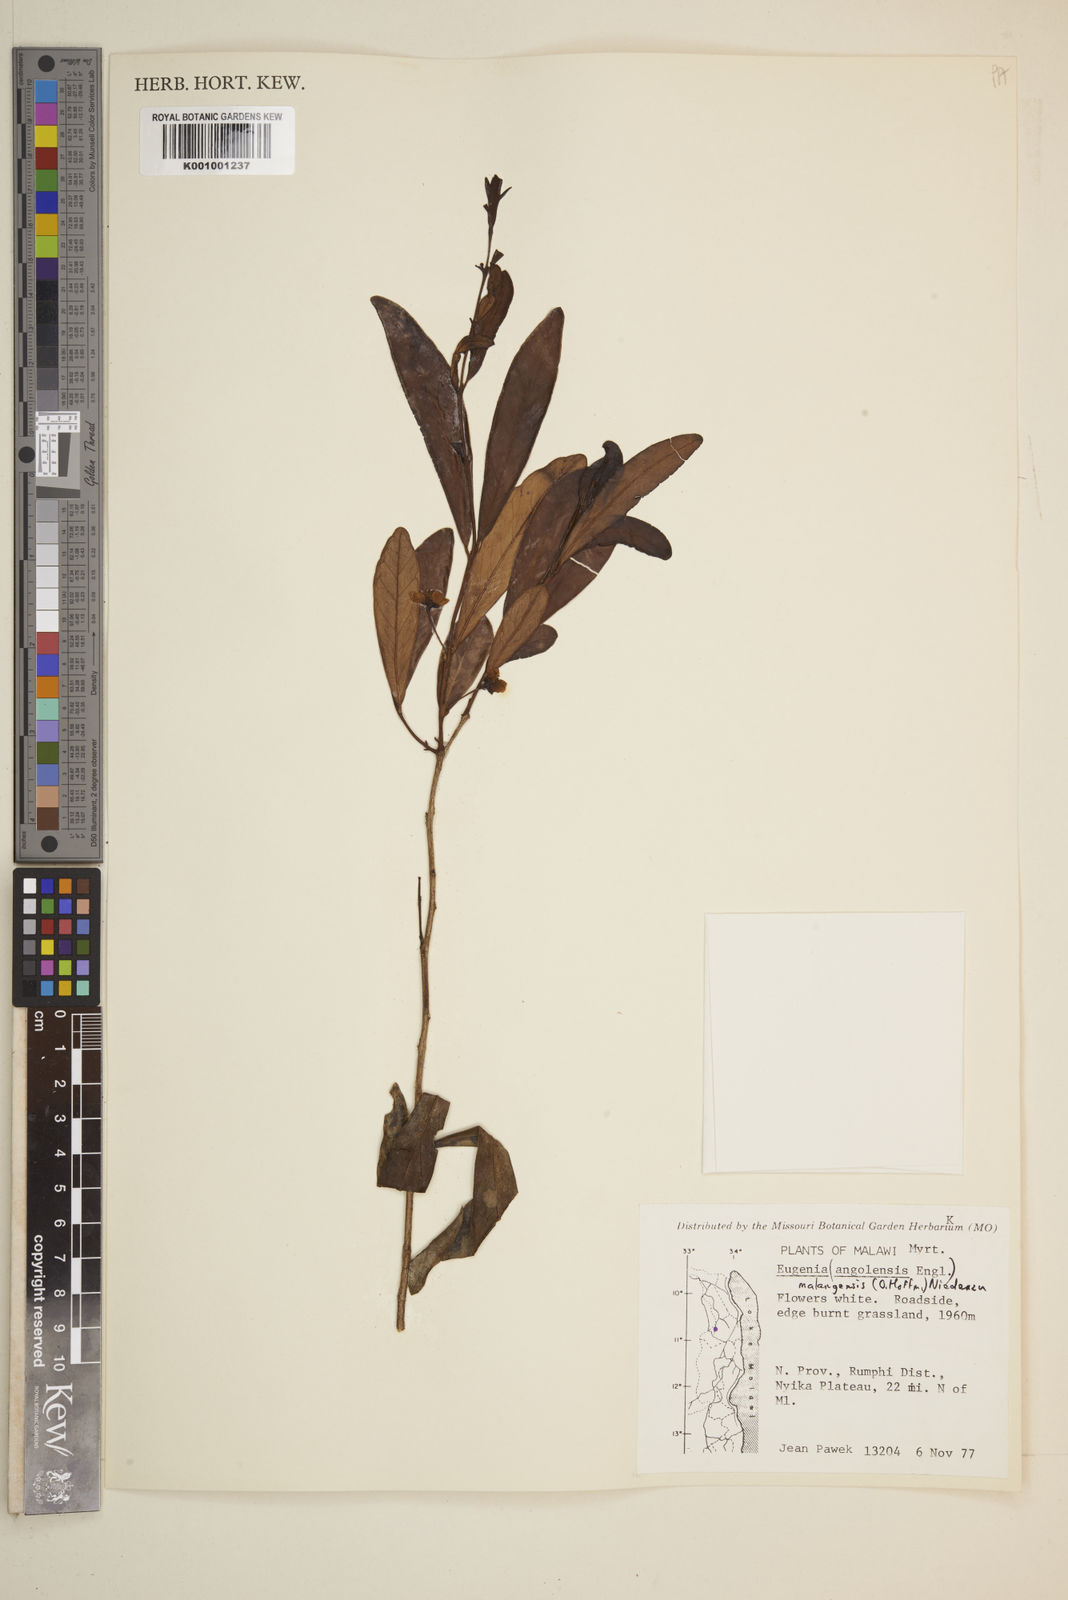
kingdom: Plantae
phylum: Tracheophyta
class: Magnoliopsida
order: Myrtales
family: Myrtaceae
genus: Eugenia
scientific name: Eugenia malangensis
